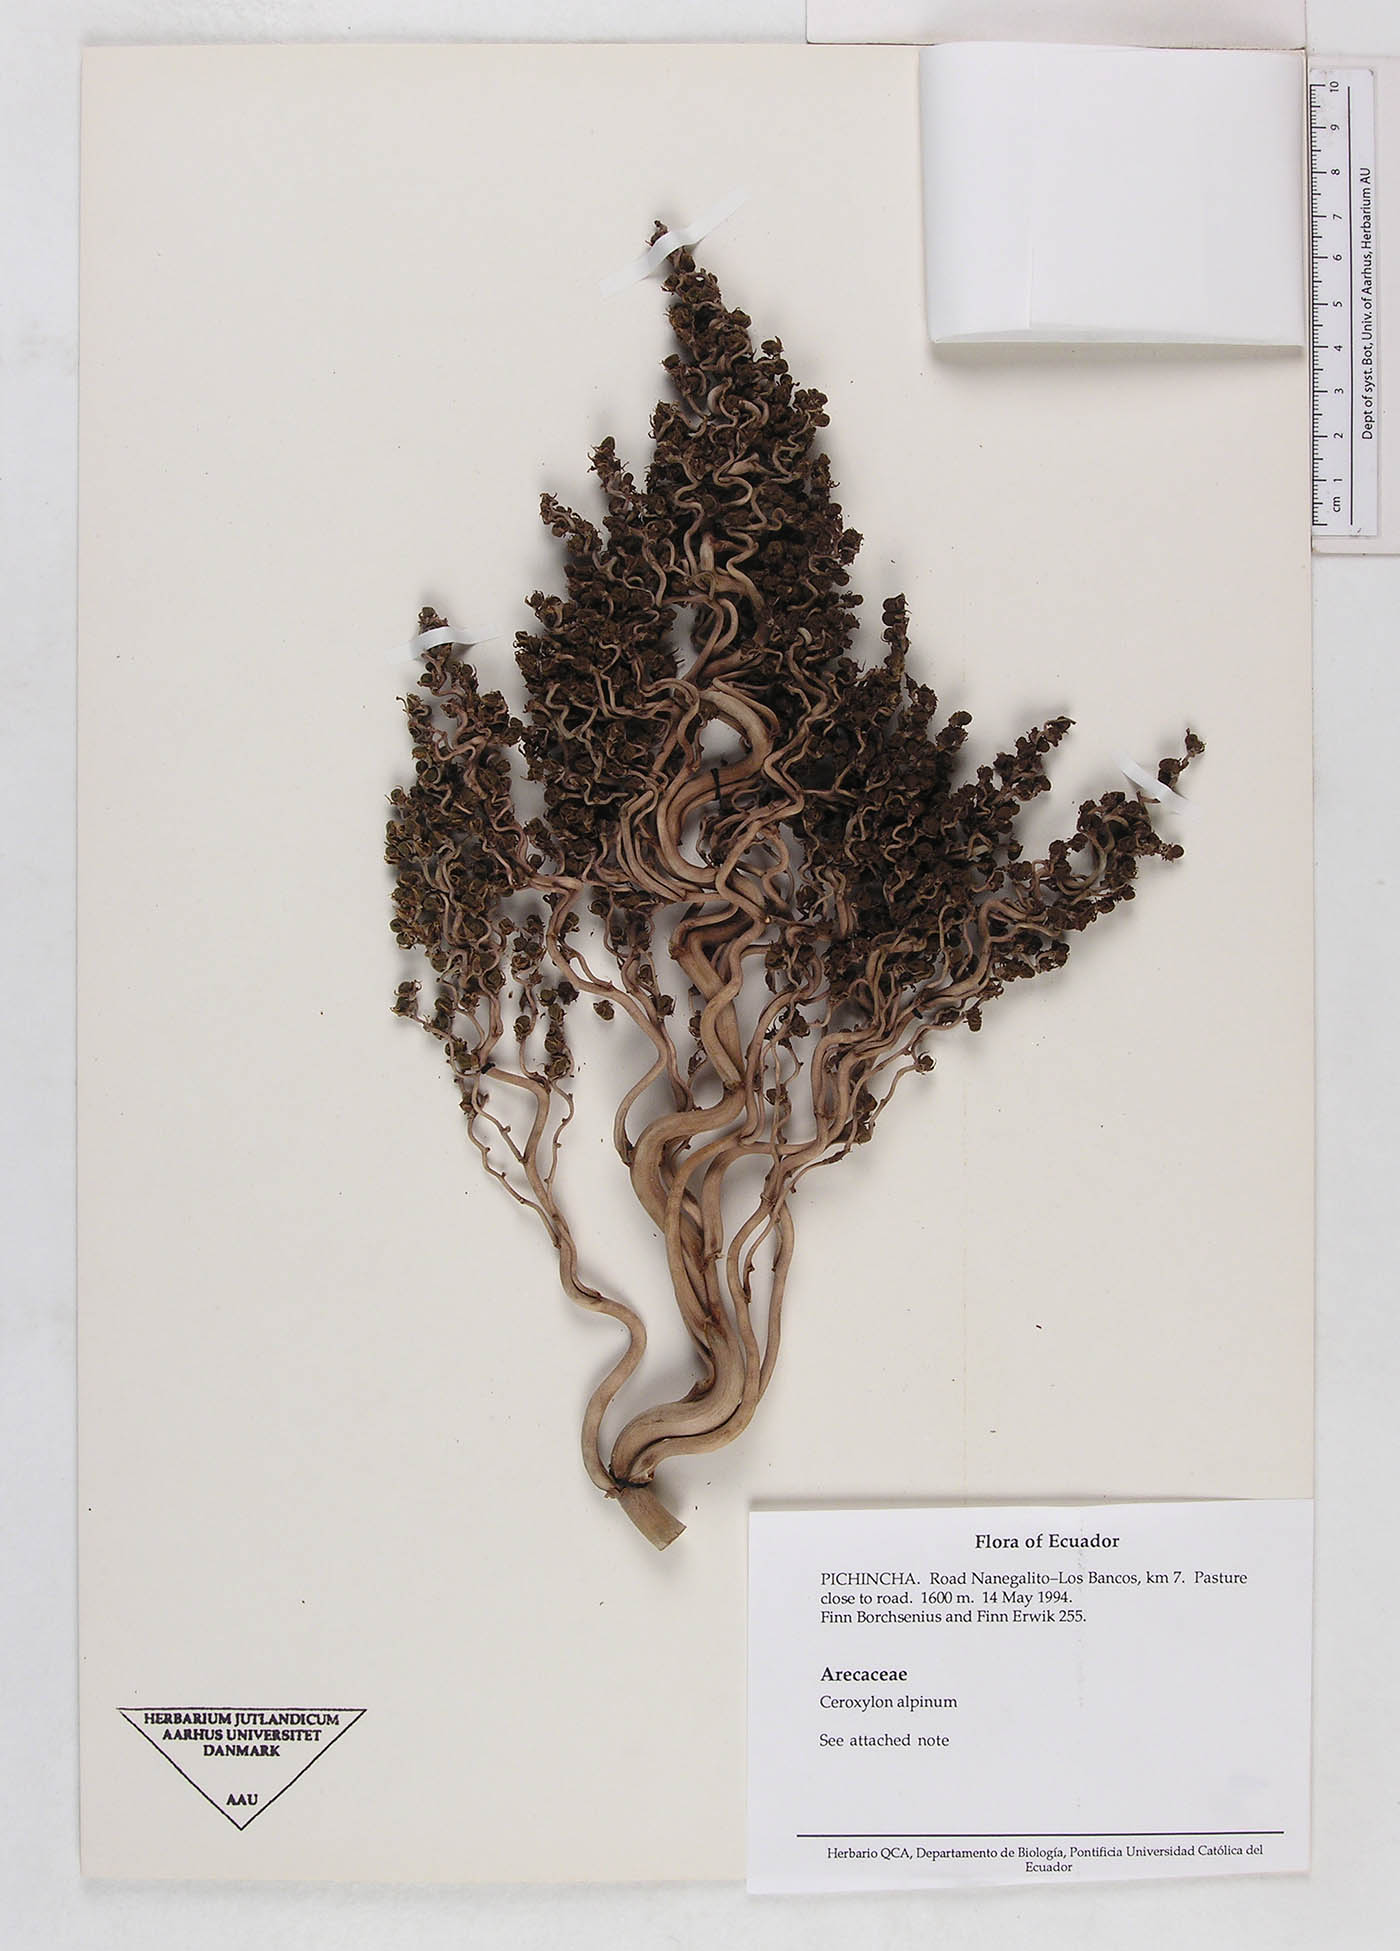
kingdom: Plantae
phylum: Tracheophyta
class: Liliopsida
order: Arecales
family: Arecaceae
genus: Ceroxylon
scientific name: Ceroxylon echinulatum
